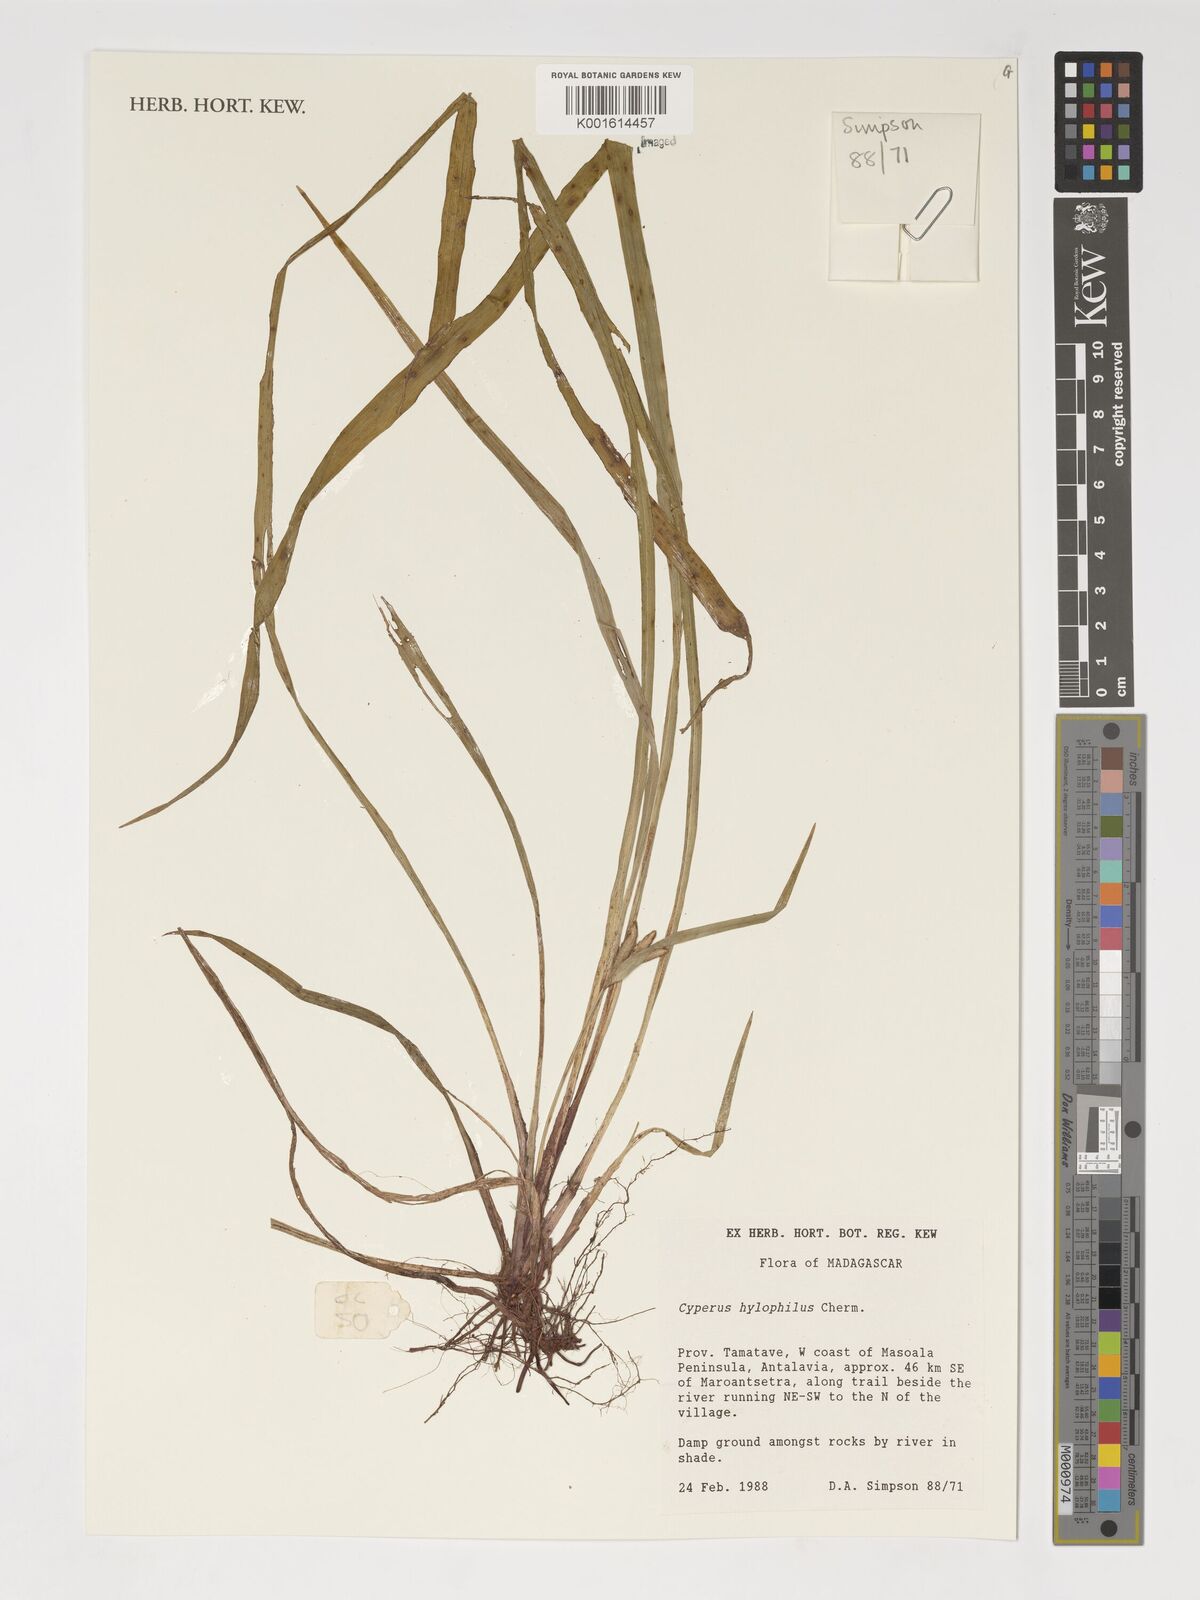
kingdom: Plantae
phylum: Tracheophyta
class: Liliopsida
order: Poales
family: Cyperaceae
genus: Cyperus
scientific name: Cyperus rufostriatus
